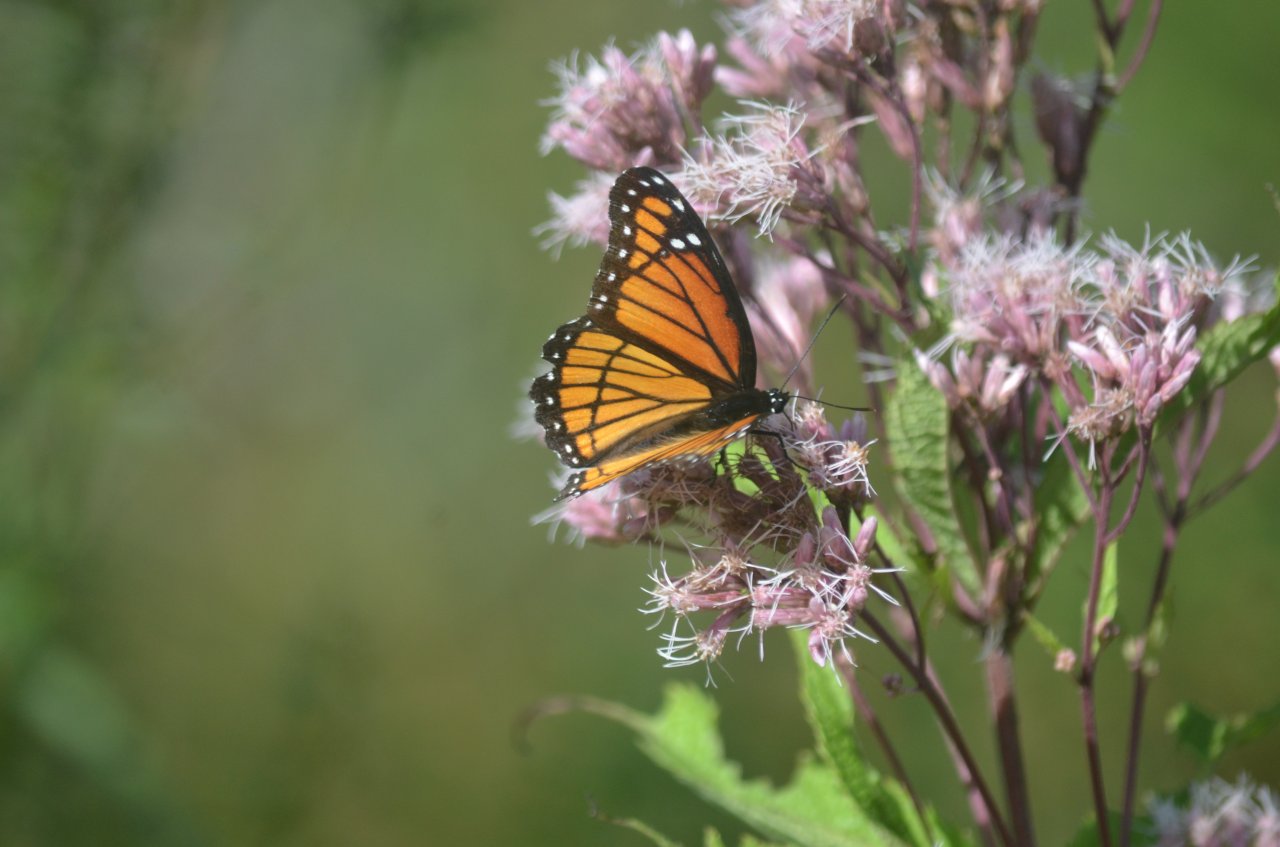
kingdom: Animalia
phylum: Arthropoda
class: Insecta
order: Lepidoptera
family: Nymphalidae
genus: Limenitis
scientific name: Limenitis archippus
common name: Viceroy
